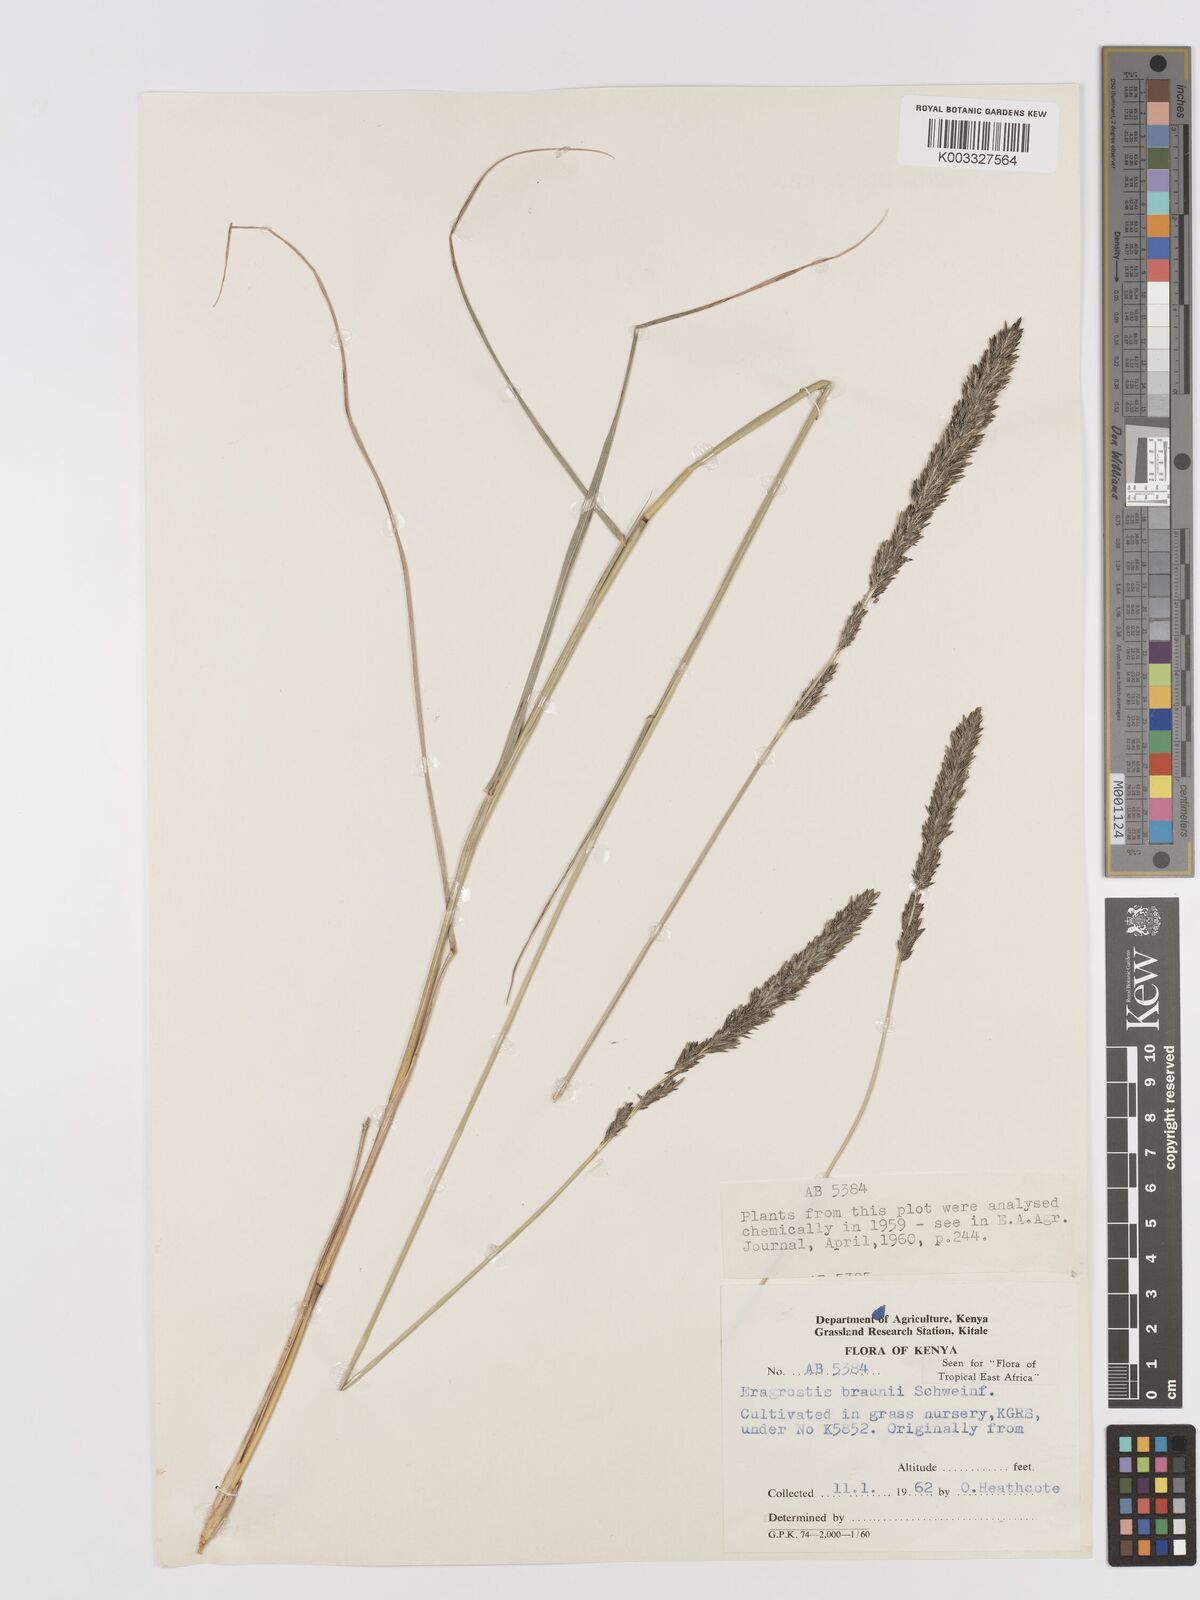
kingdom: Plantae
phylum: Tracheophyta
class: Liliopsida
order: Poales
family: Poaceae
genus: Eragrostis
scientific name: Eragrostis braunii
